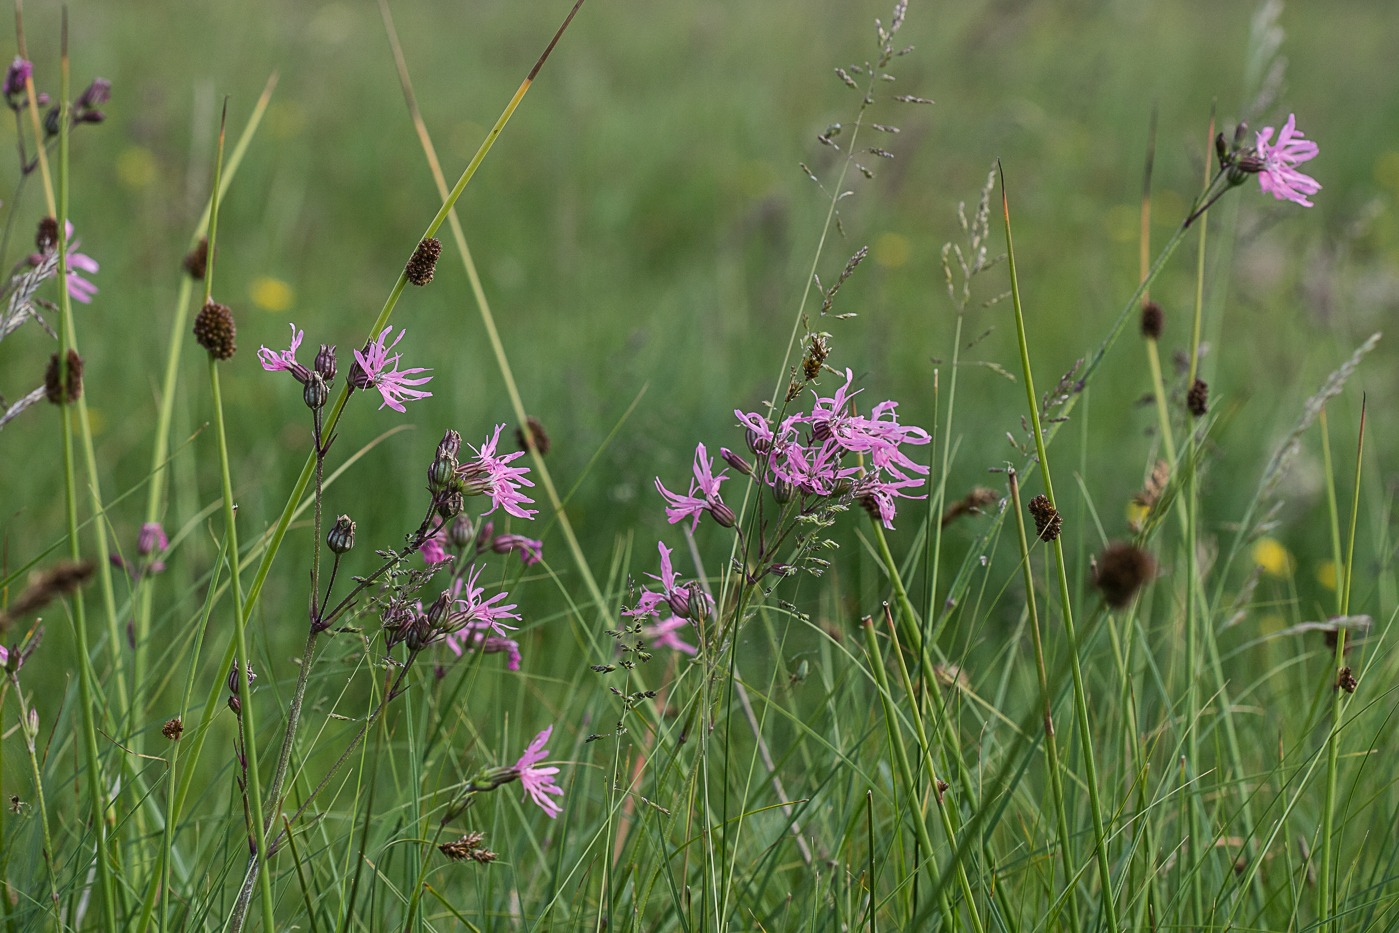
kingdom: Plantae
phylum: Tracheophyta
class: Magnoliopsida
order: Caryophyllales
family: Caryophyllaceae
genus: Silene
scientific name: Silene flos-cuculi
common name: Trævlekrone
